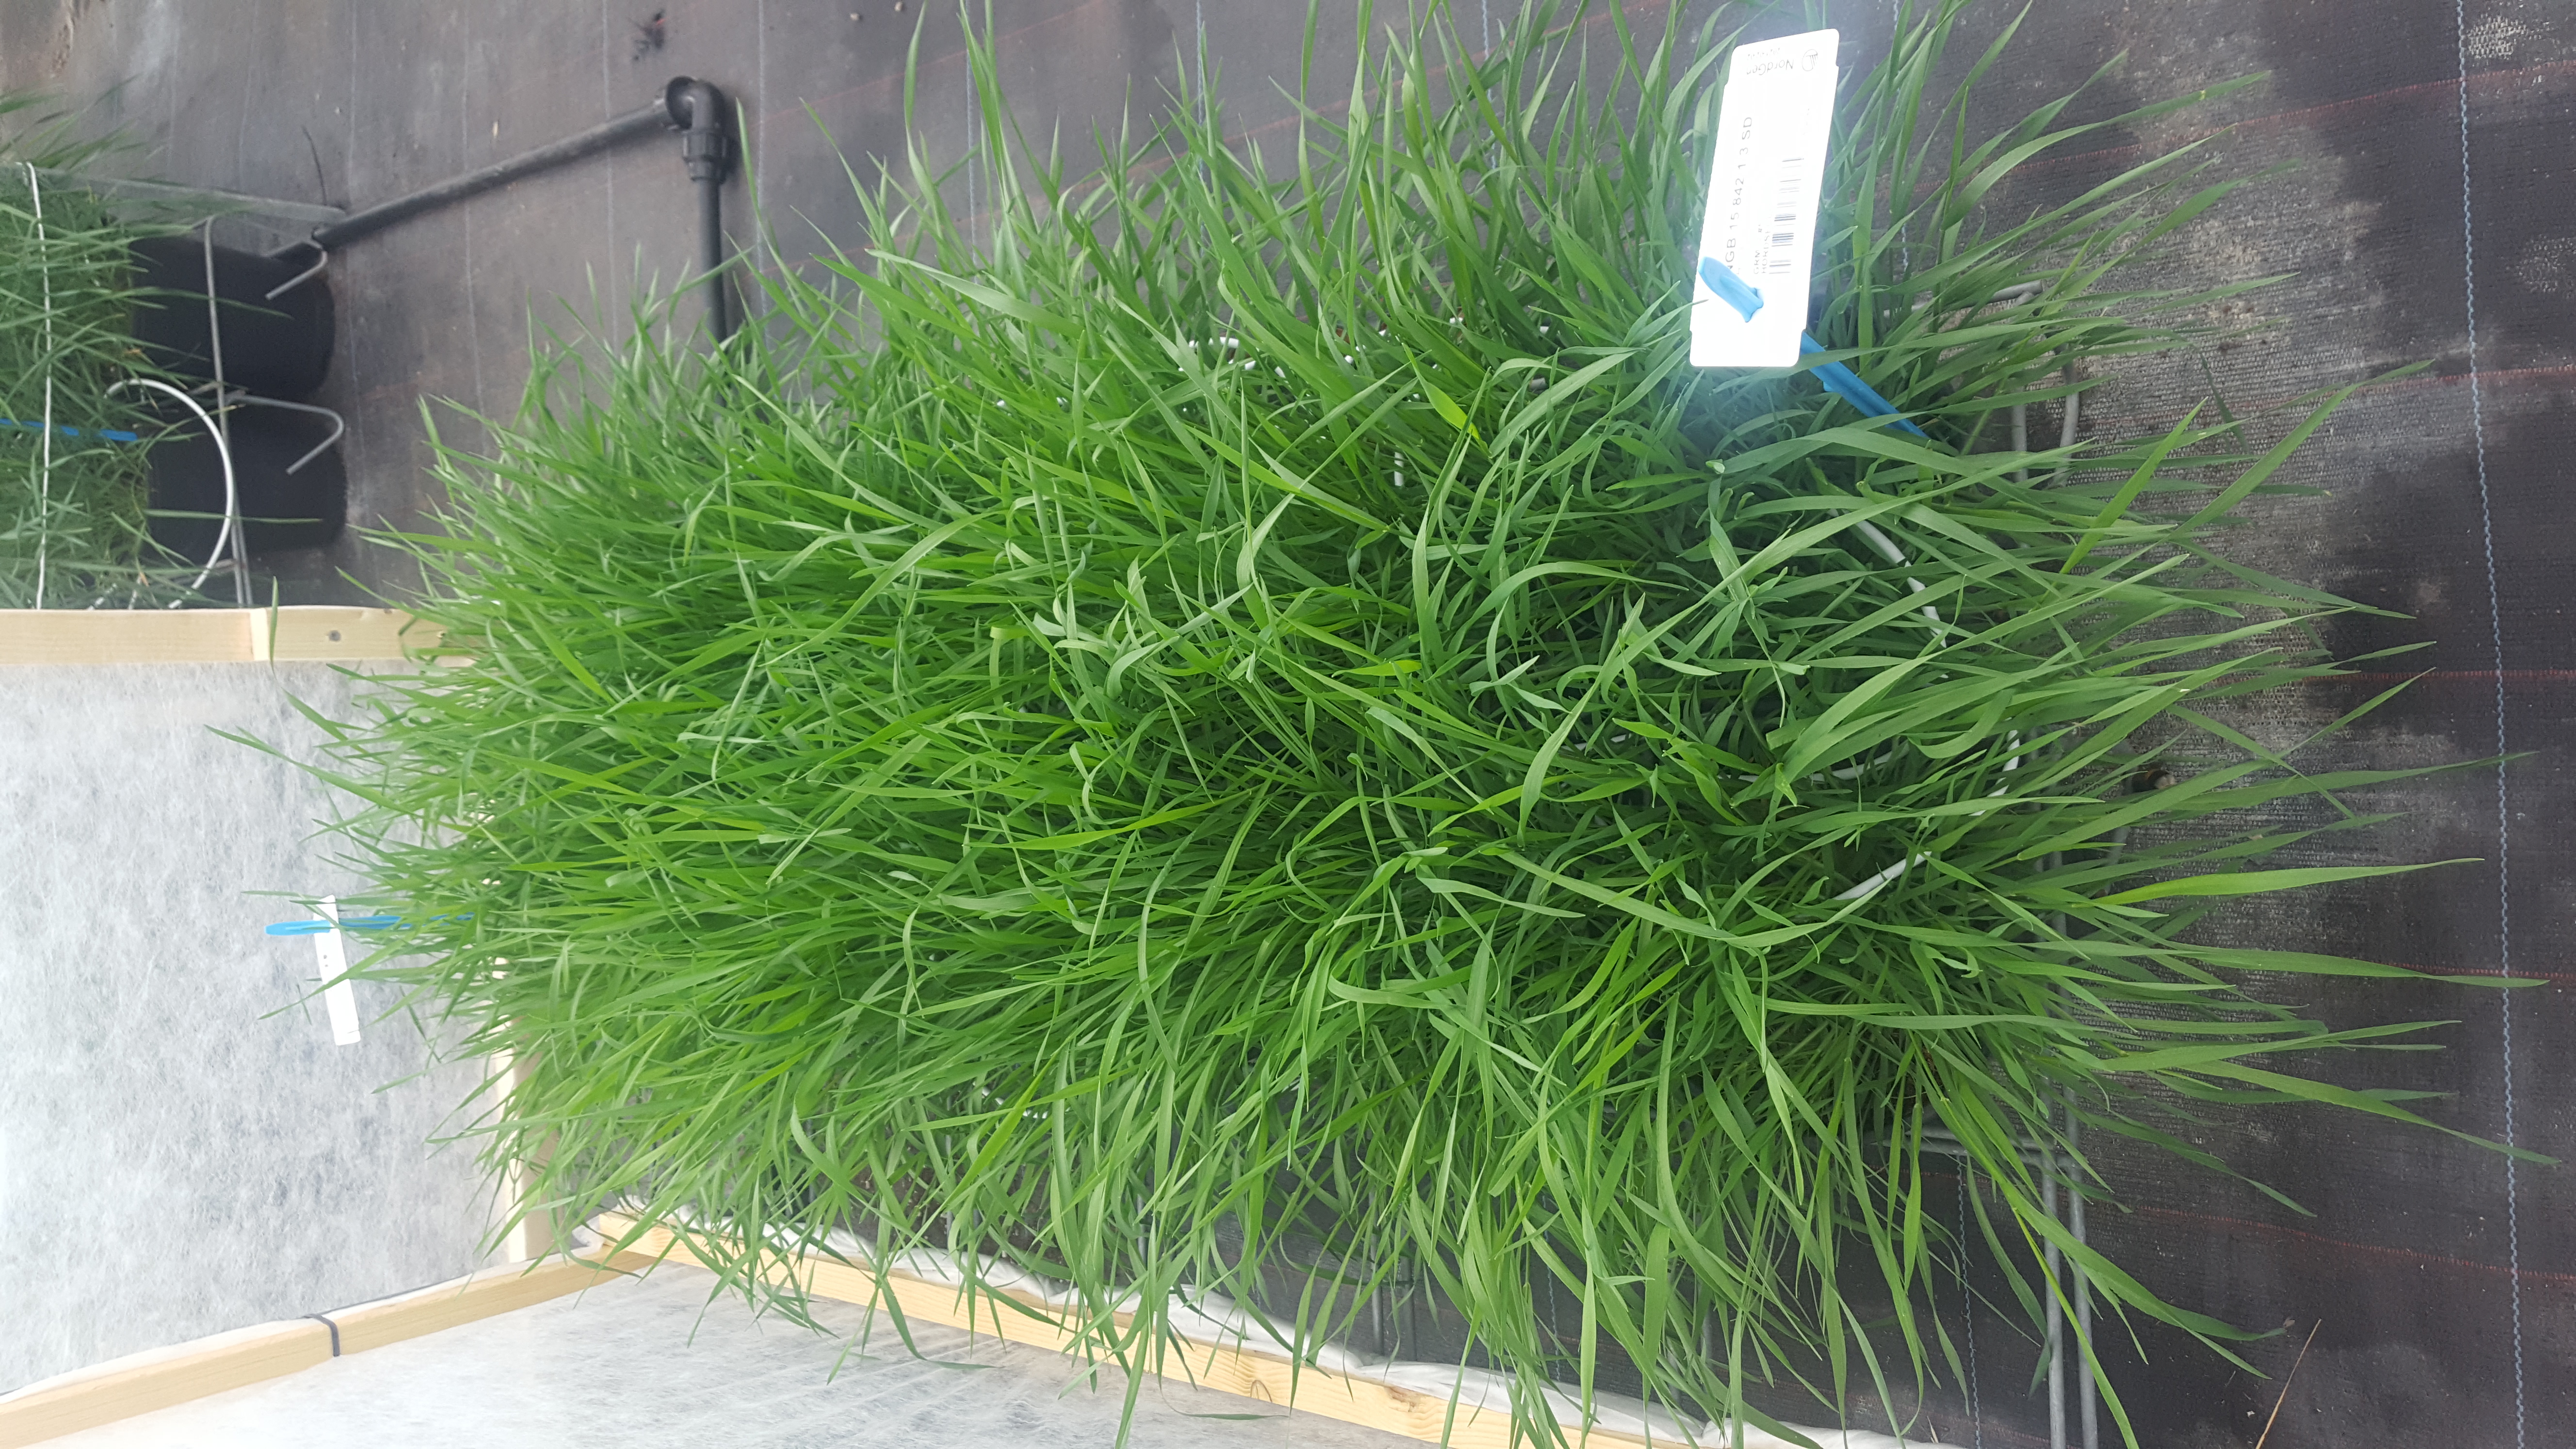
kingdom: Plantae
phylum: Tracheophyta
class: Liliopsida
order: Poales
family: Poaceae
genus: Hordeum
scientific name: Hordeum secalinum
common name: Meadow barley
